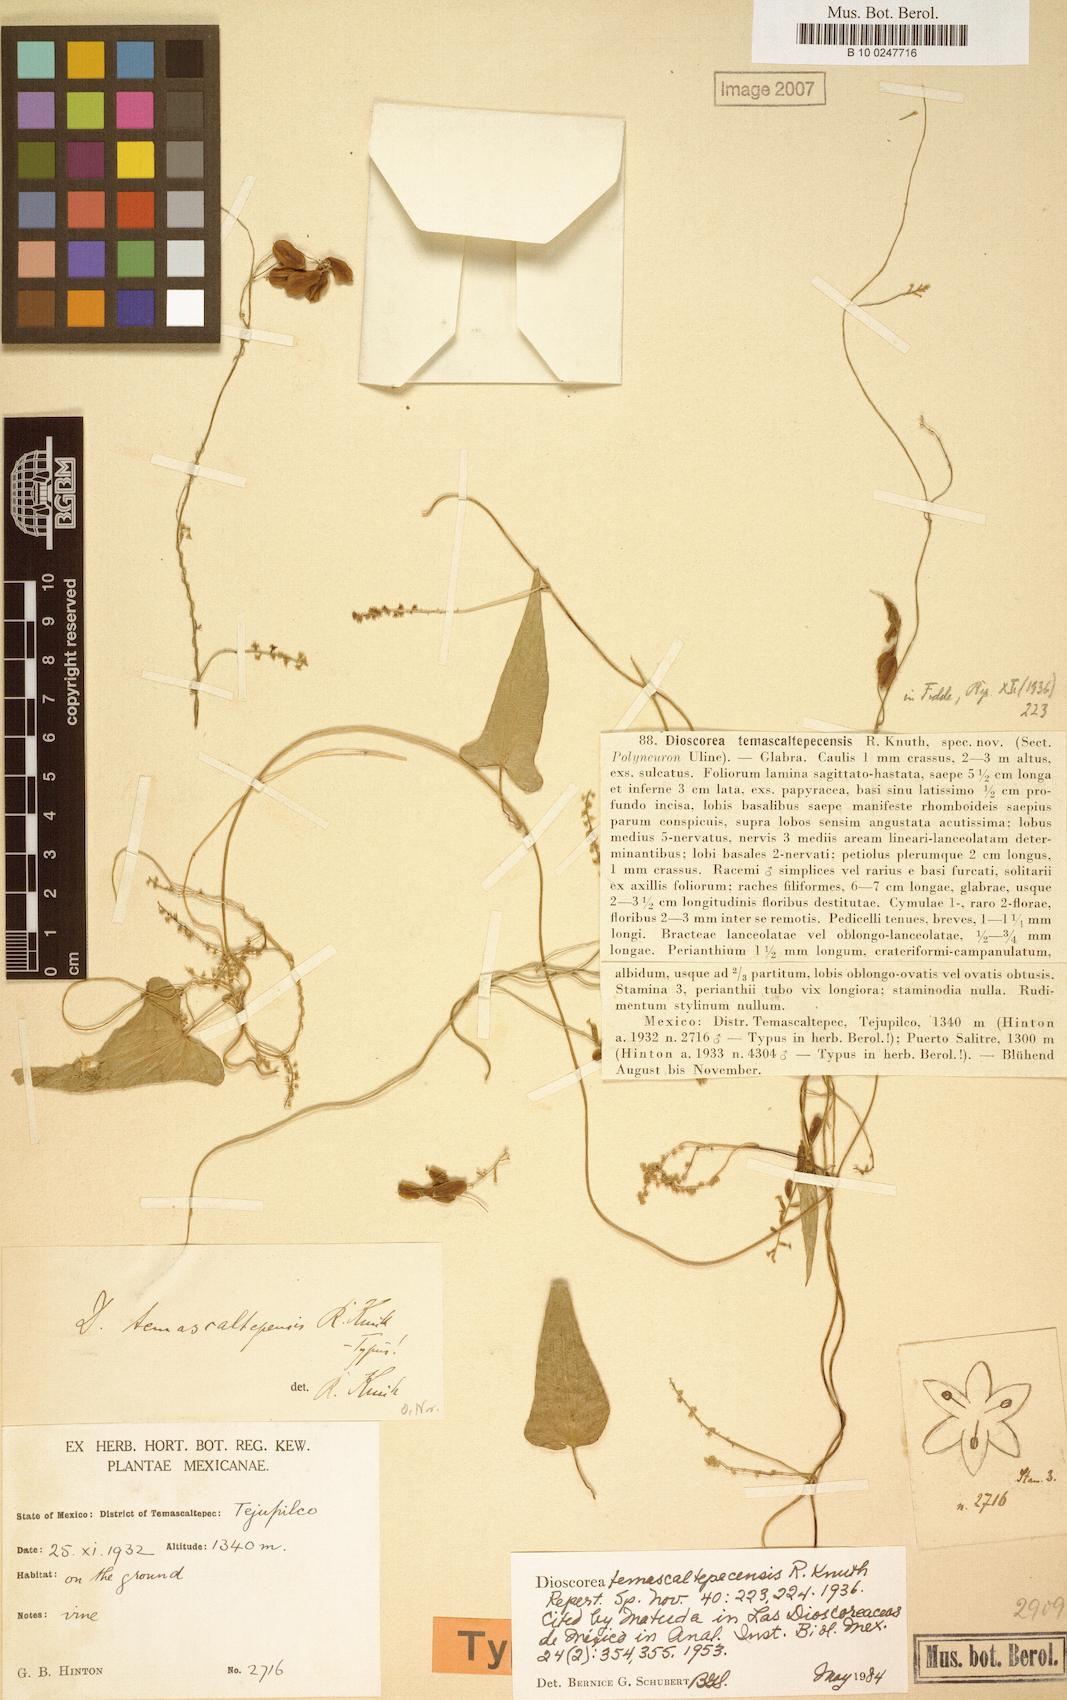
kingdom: Plantae
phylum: Tracheophyta
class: Liliopsida
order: Dioscoreales
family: Dioscoreaceae
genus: Dioscorea
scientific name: Dioscorea temascaltepecensis
